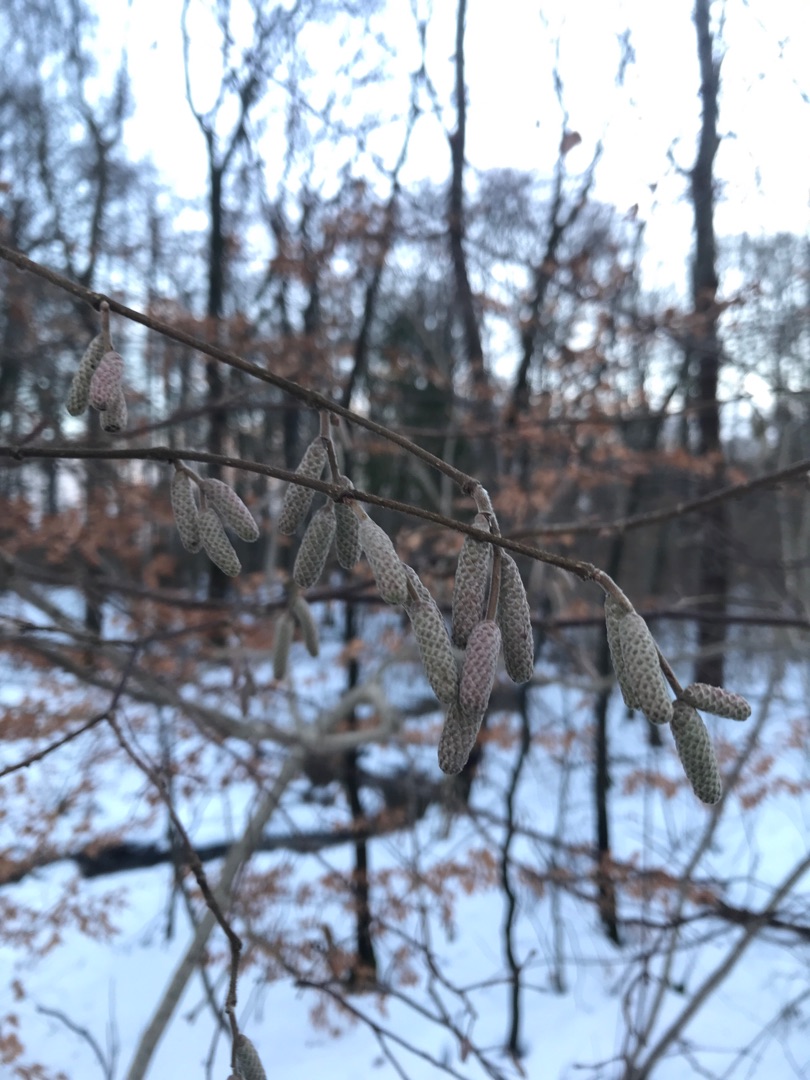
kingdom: Plantae
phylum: Tracheophyta
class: Magnoliopsida
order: Fagales
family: Betulaceae
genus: Corylus
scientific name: Corylus avellana
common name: Hassel
